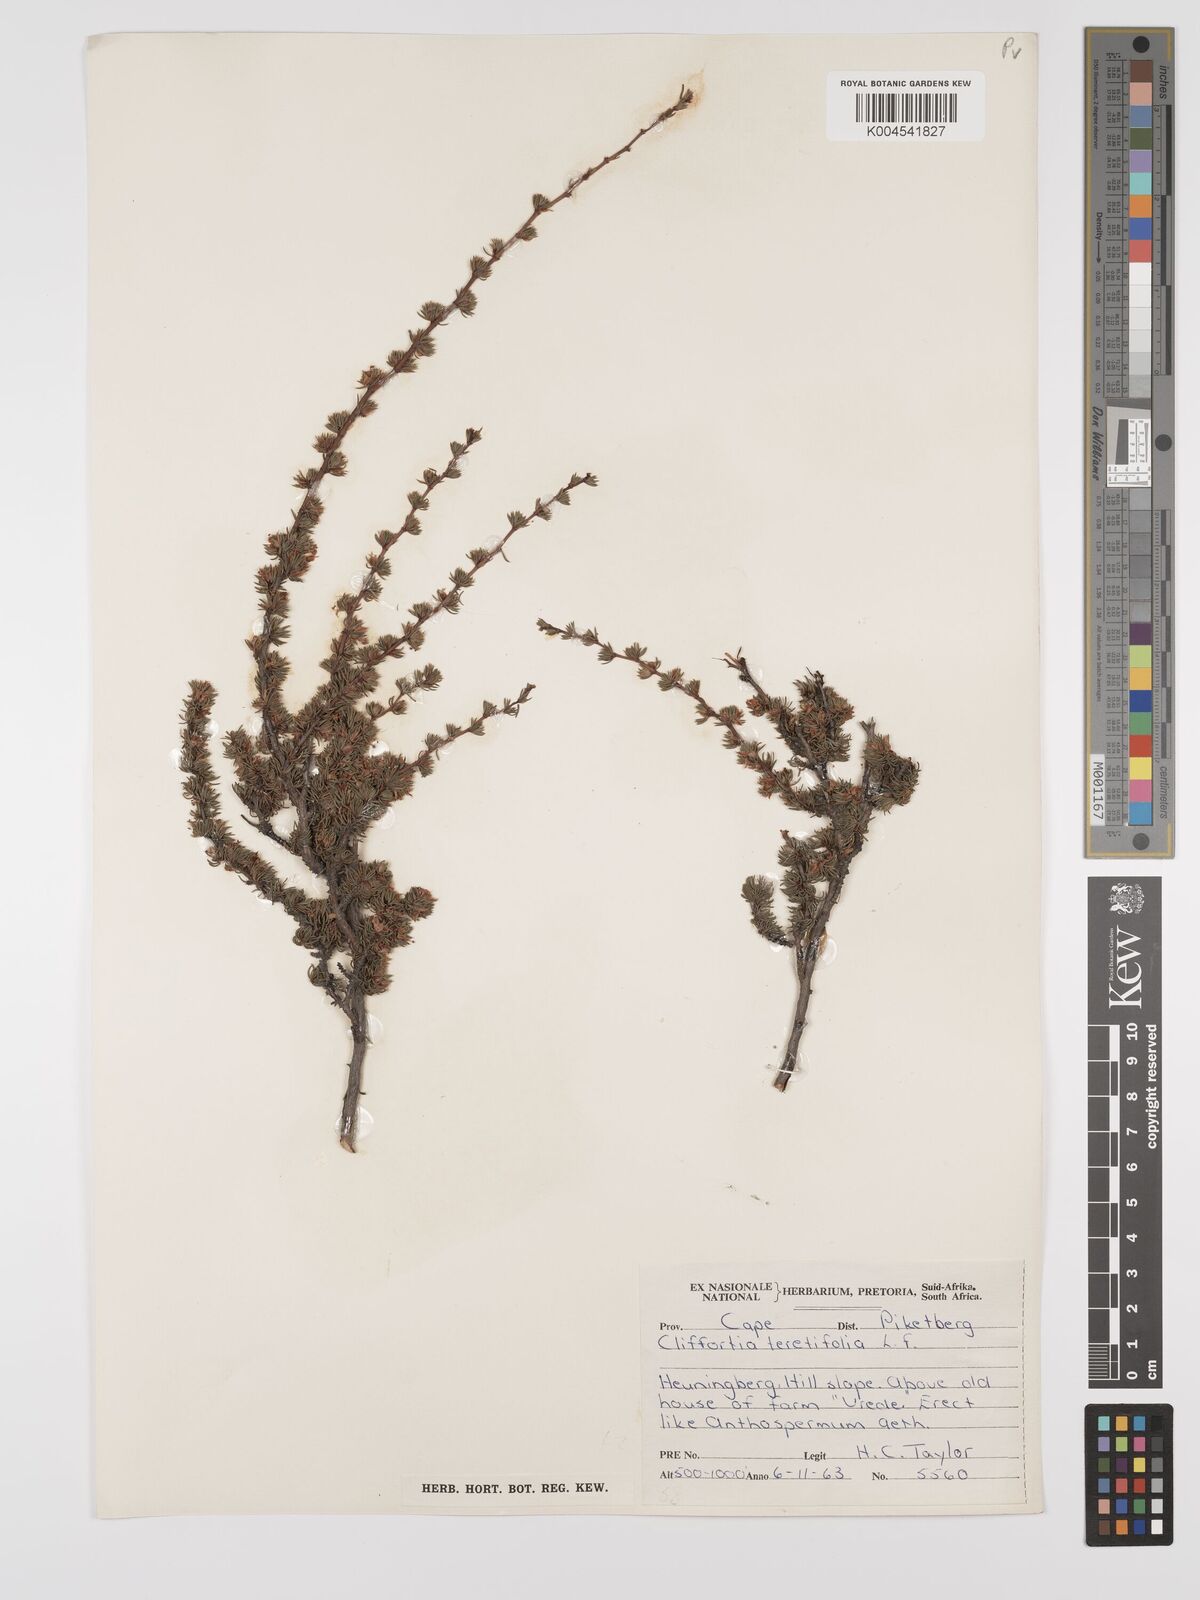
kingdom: Plantae
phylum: Tracheophyta
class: Magnoliopsida
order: Rosales
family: Rosaceae
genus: Cliffortia
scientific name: Cliffortia teretifolia
